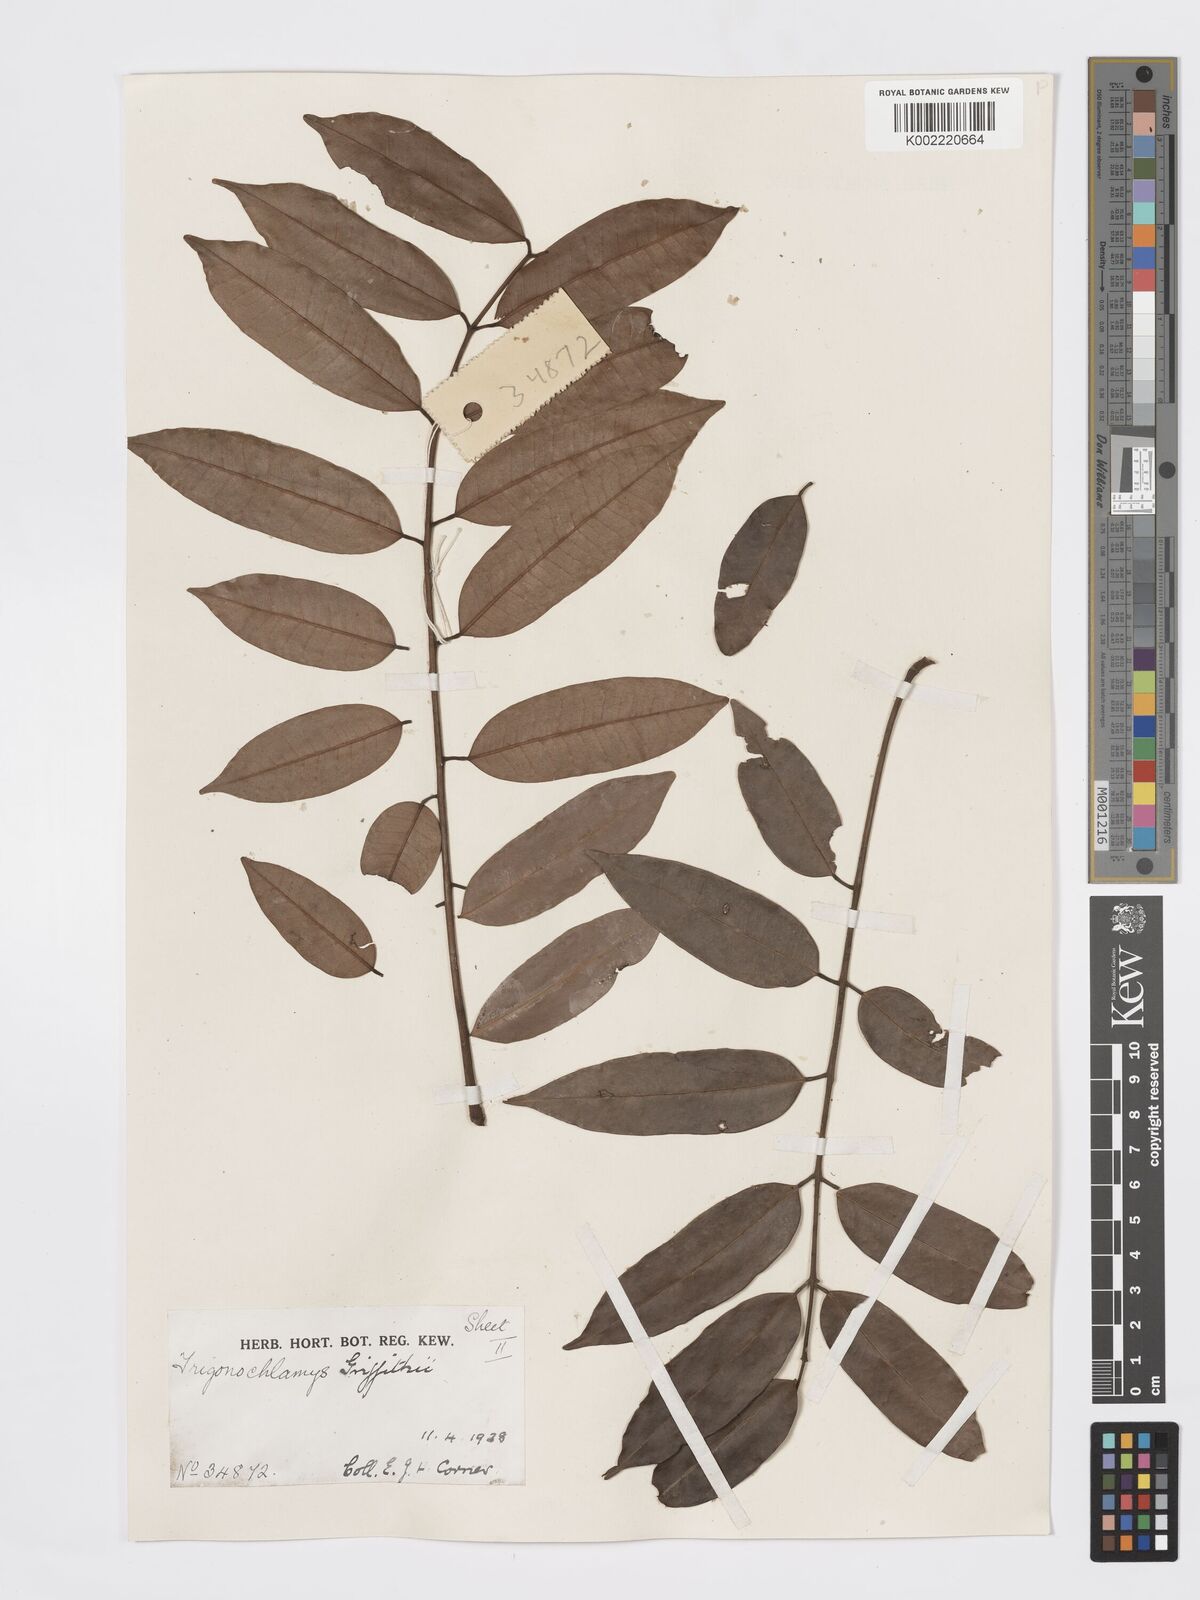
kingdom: Plantae
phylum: Tracheophyta
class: Magnoliopsida
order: Sapindales
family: Burseraceae
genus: Santiria
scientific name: Santiria griffithii
